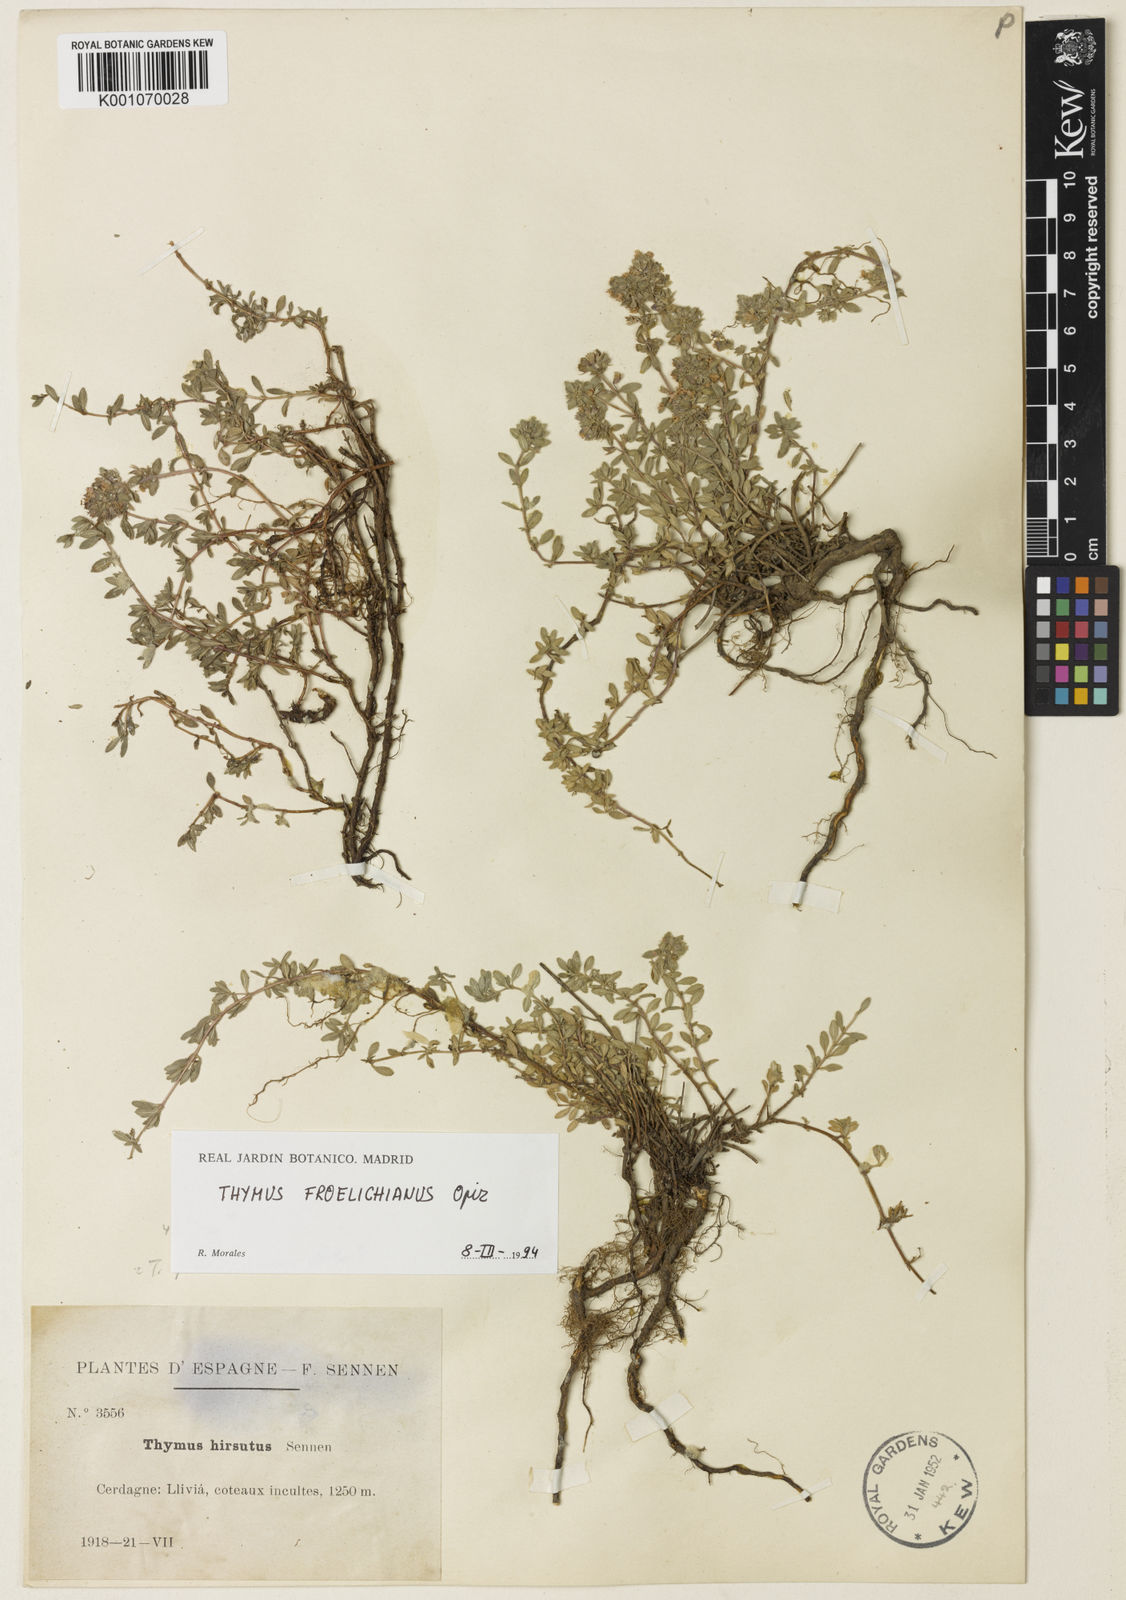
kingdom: Plantae
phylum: Tracheophyta
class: Magnoliopsida
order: Lamiales
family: Lamiaceae
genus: Thymus
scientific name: Thymus pulegioides
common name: Large thyme
